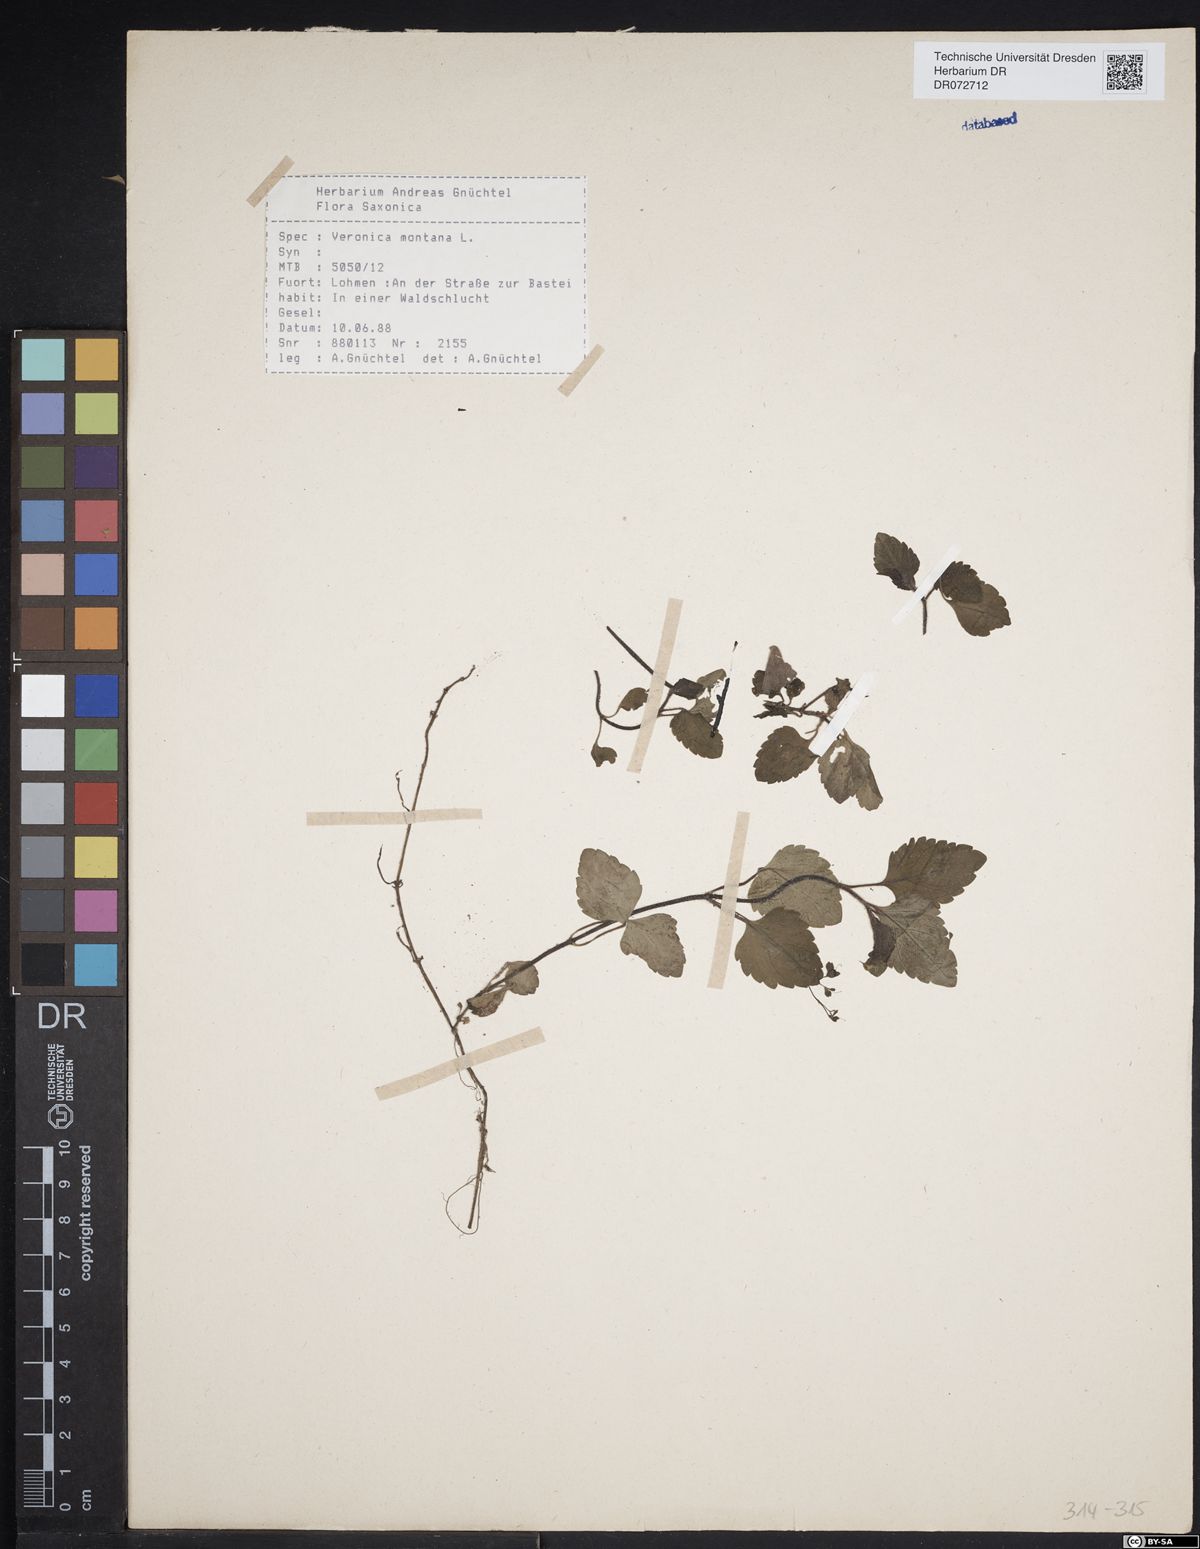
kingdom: Plantae
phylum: Tracheophyta
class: Magnoliopsida
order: Lamiales
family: Plantaginaceae
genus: Veronica
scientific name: Veronica montana
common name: Wood speedwell
